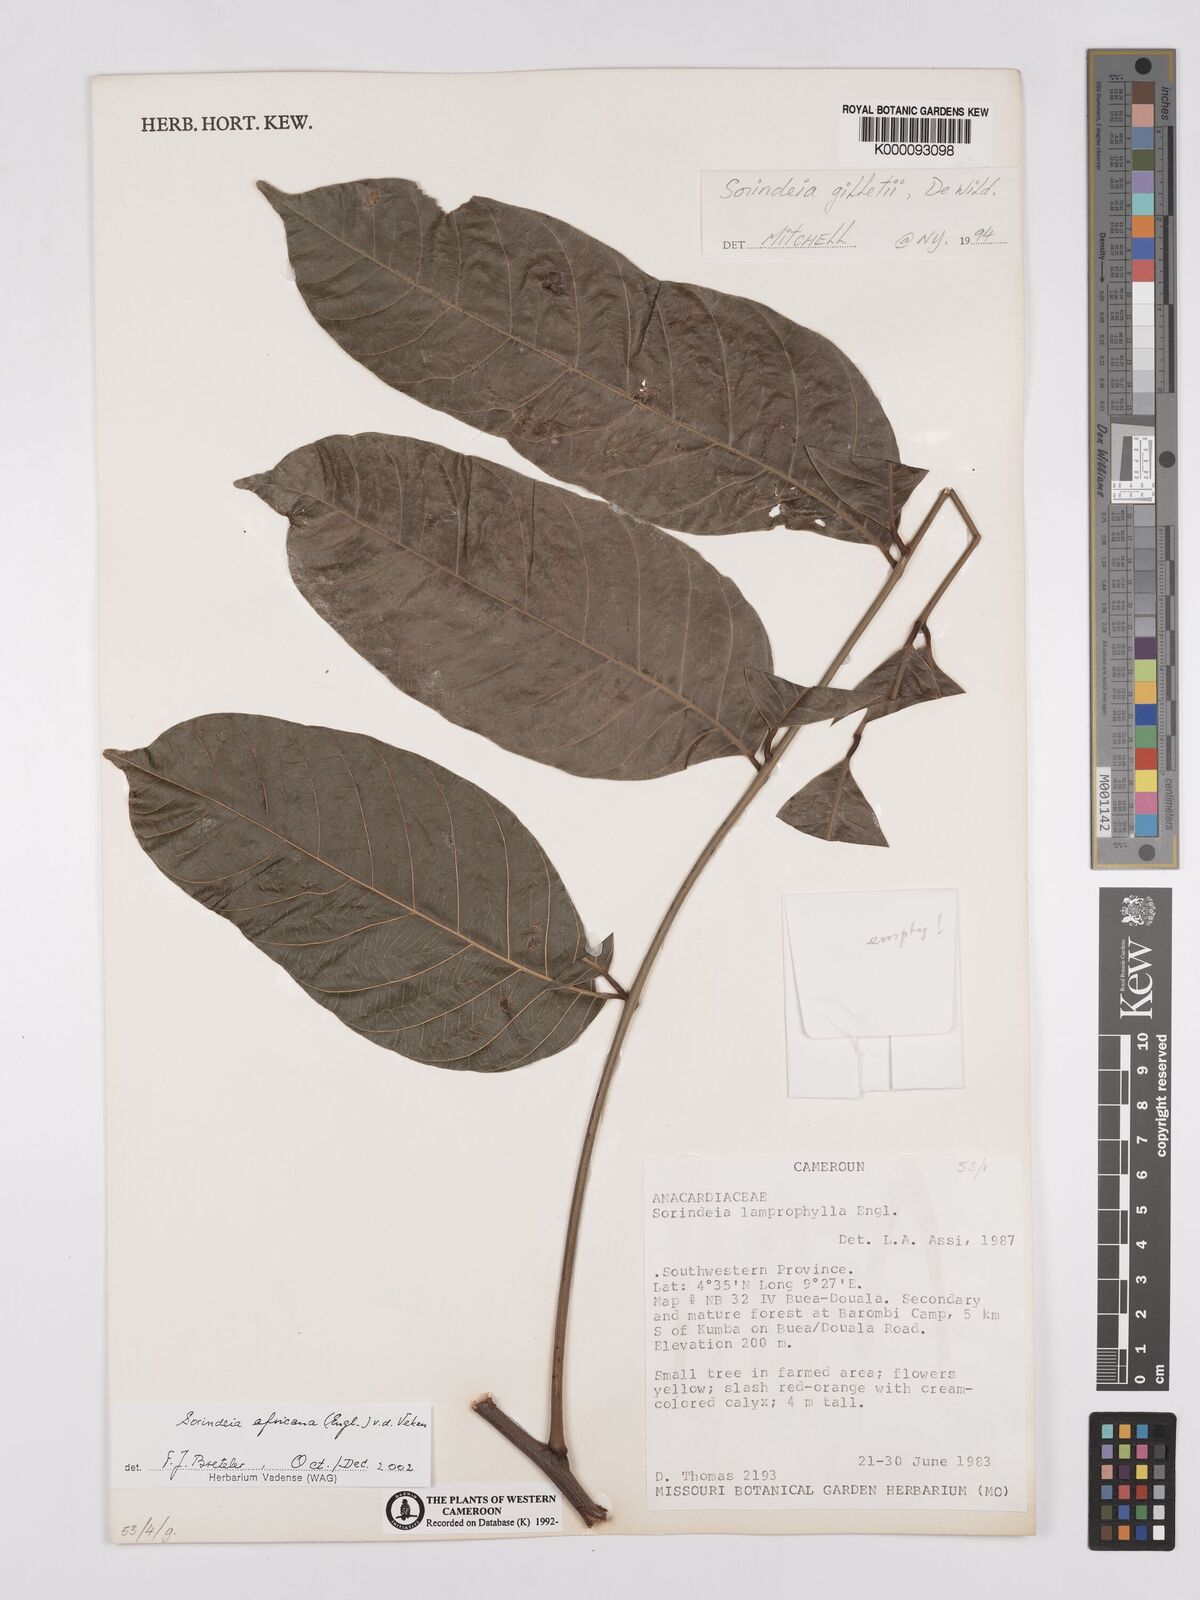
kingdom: Plantae
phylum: Tracheophyta
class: Magnoliopsida
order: Sapindales
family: Anacardiaceae
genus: Sorindeia
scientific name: Sorindeia africana
